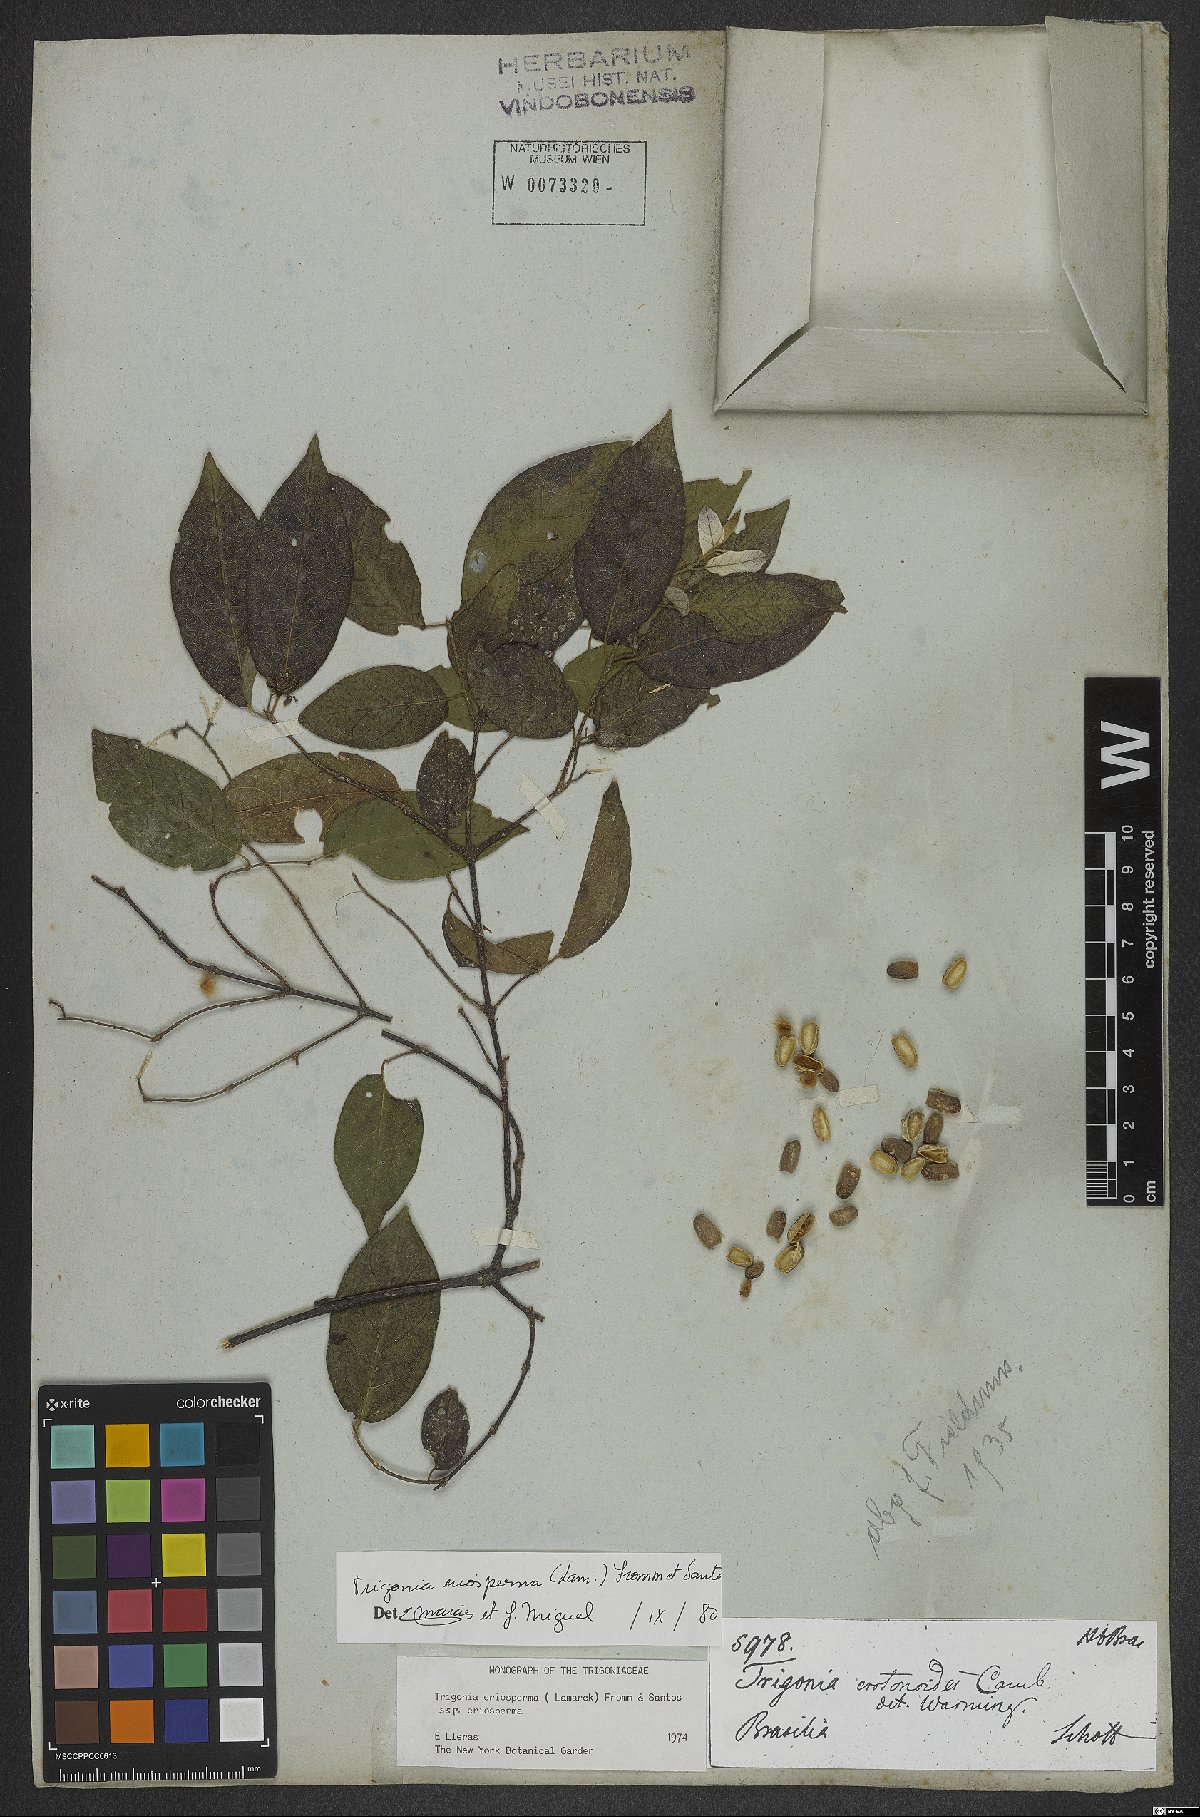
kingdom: Plantae
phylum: Tracheophyta
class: Magnoliopsida
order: Malpighiales
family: Trigoniaceae
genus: Trigonia
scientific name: Trigonia eriosperma
